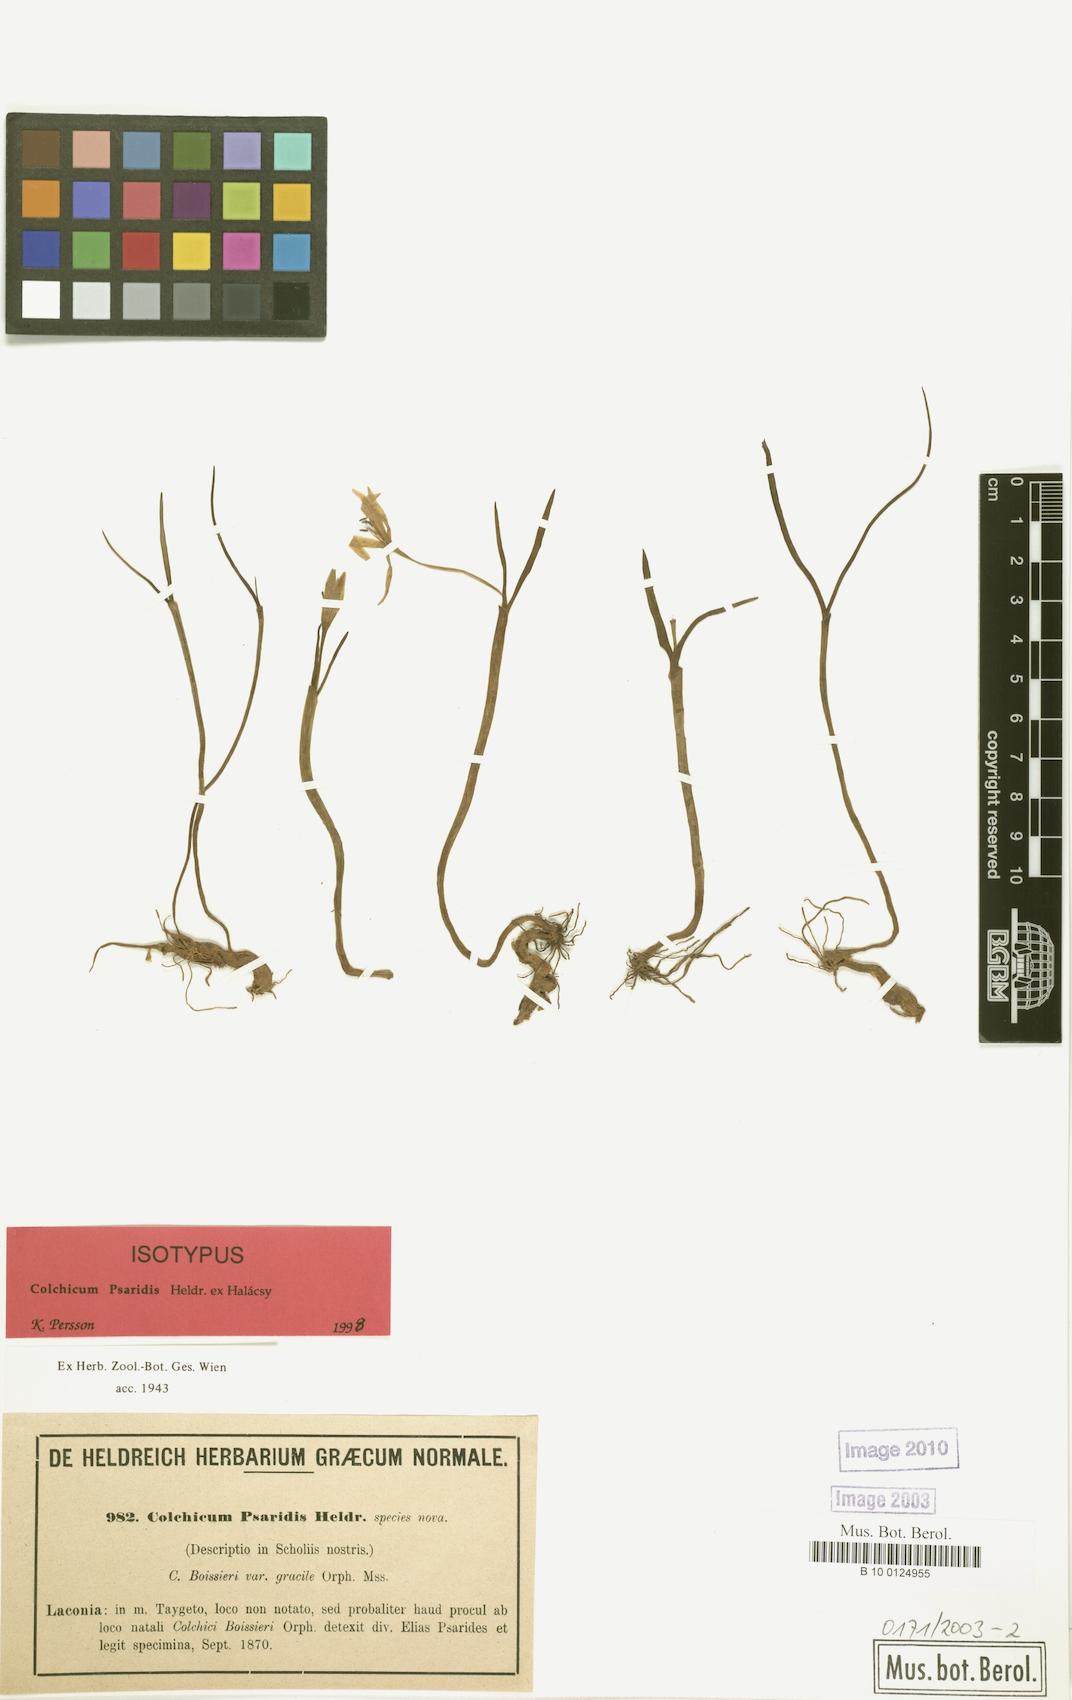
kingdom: Plantae
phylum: Tracheophyta
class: Liliopsida
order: Liliales
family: Colchicaceae
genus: Colchicum
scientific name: Colchicum zahnii
